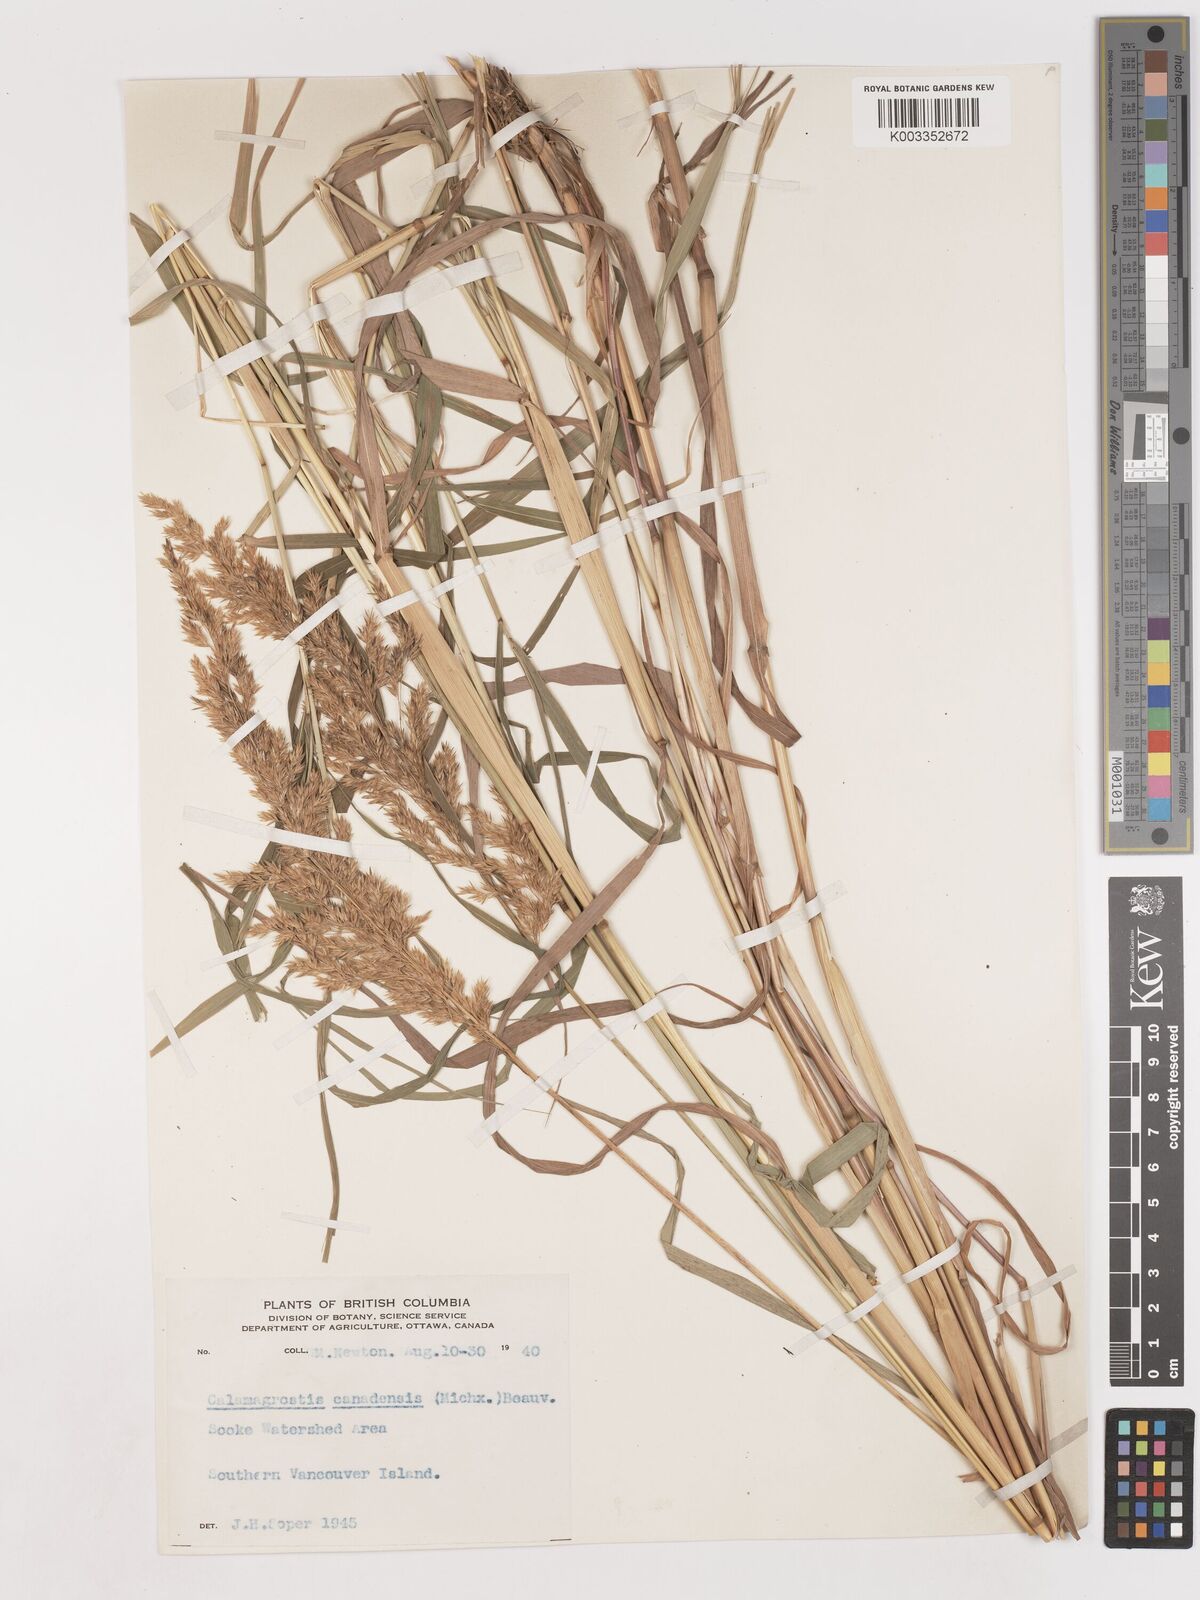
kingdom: Plantae
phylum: Tracheophyta
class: Liliopsida
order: Poales
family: Poaceae
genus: Calamagrostis
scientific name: Calamagrostis canadensis
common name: Canada bluejoint
